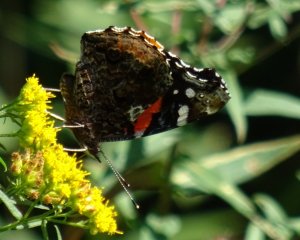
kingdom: Animalia
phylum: Arthropoda
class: Insecta
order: Lepidoptera
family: Nymphalidae
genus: Vanessa
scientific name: Vanessa atalanta
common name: Red Admiral
